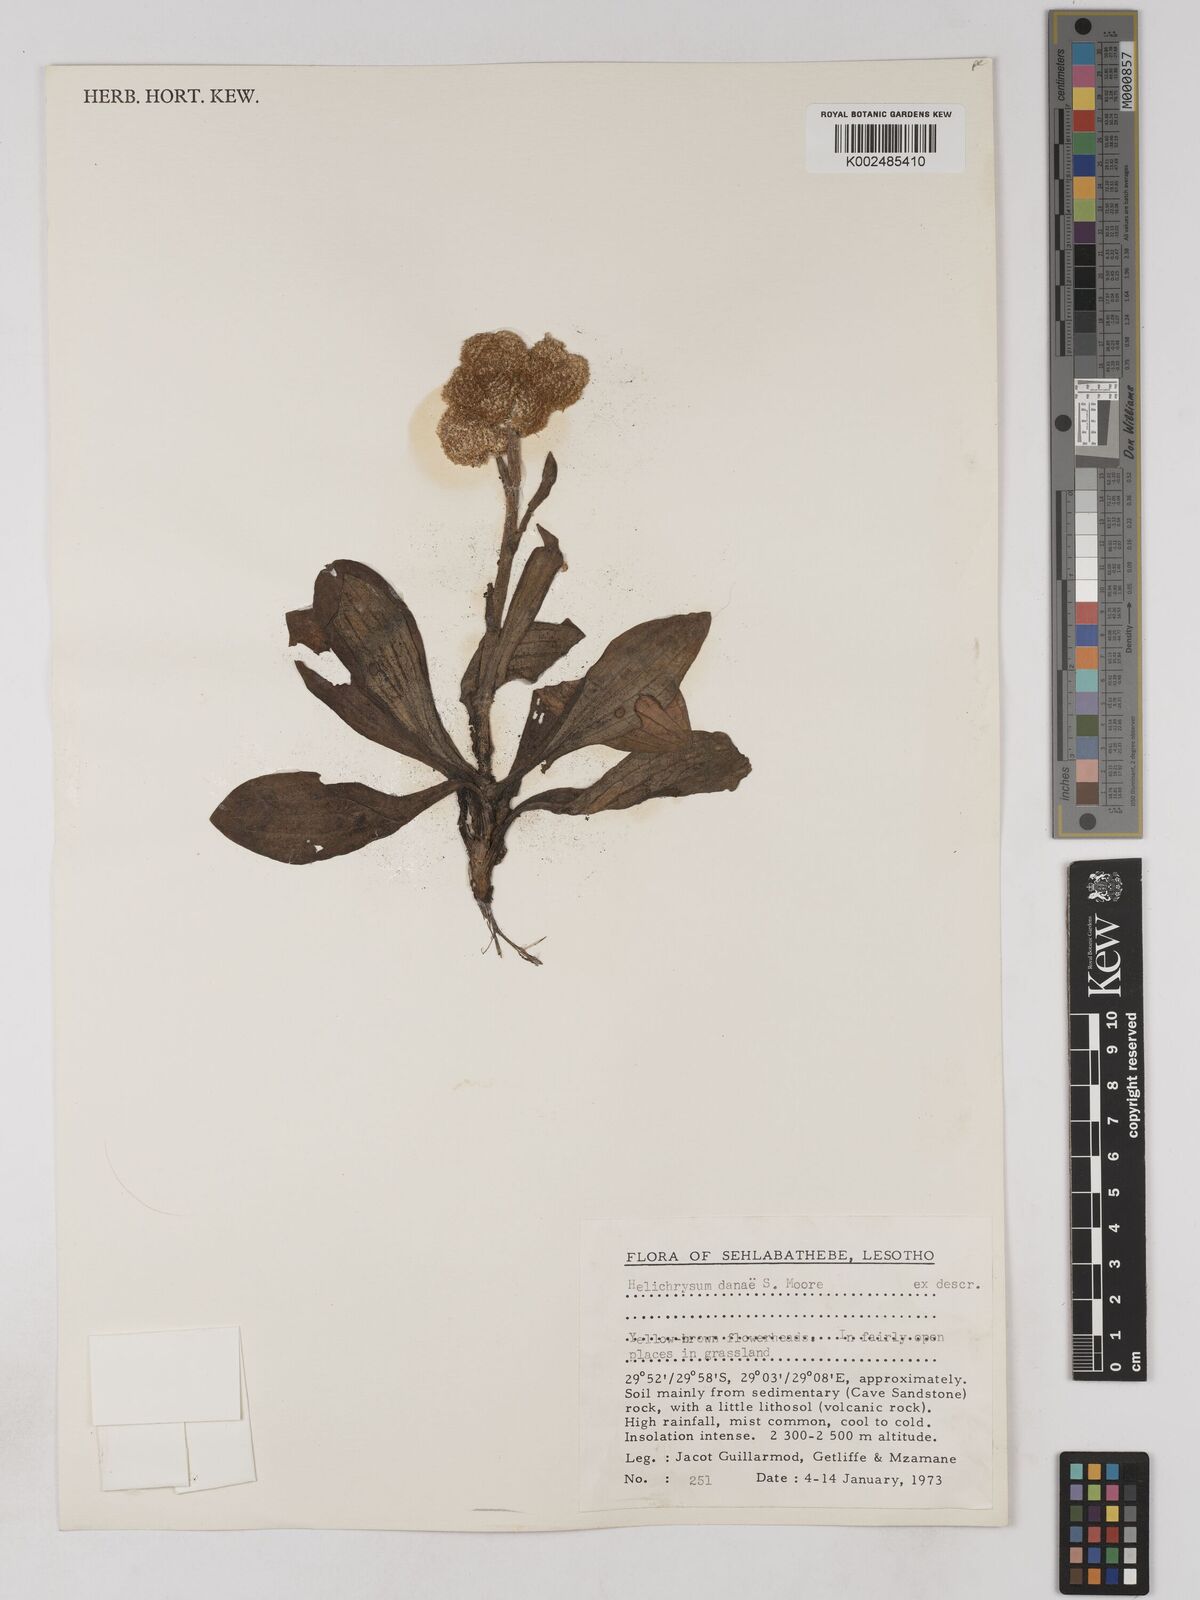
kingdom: Plantae
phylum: Tracheophyta
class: Magnoliopsida
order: Asterales
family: Asteraceae
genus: Helichrysum
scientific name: Helichrysum acutatum
